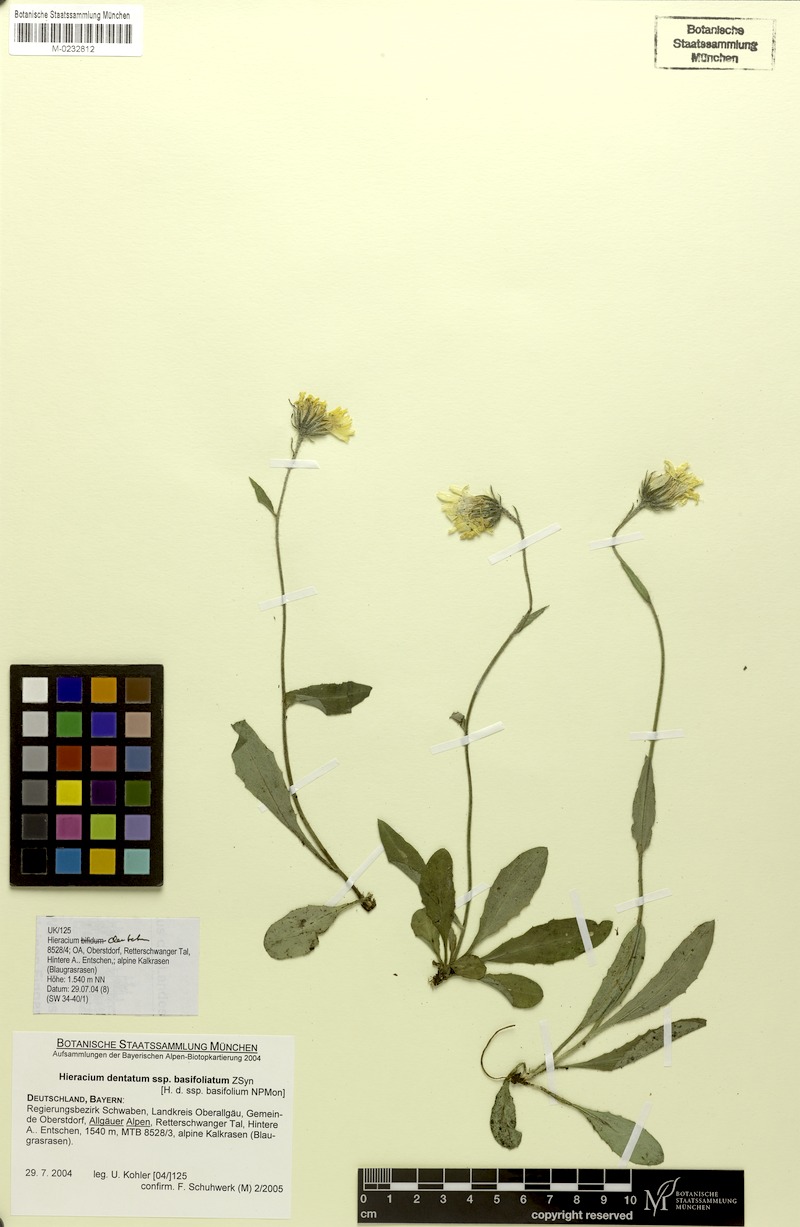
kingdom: Plantae
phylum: Tracheophyta
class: Magnoliopsida
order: Asterales
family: Asteraceae
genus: Hieracium
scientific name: Hieracium dentatum
